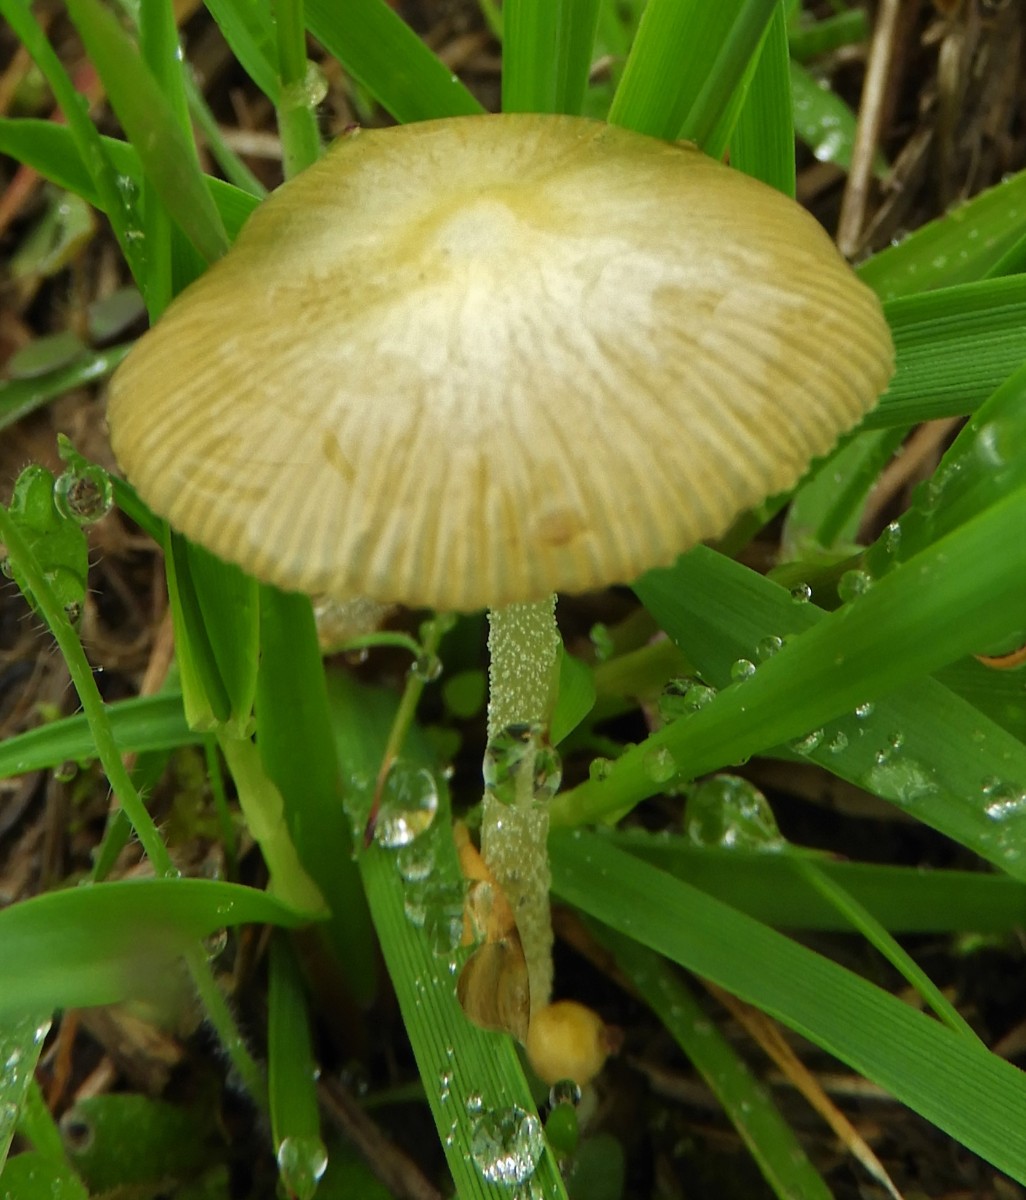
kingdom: Fungi
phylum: Basidiomycota
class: Agaricomycetes
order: Agaricales
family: Bolbitiaceae
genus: Bolbitius
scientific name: Bolbitius titubans
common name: almindelig gulhat
